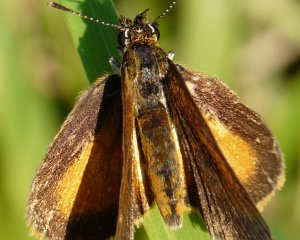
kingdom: Animalia
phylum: Arthropoda
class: Insecta
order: Lepidoptera
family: Hesperiidae
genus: Ancyloxypha
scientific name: Ancyloxypha numitor
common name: Least Skipper
